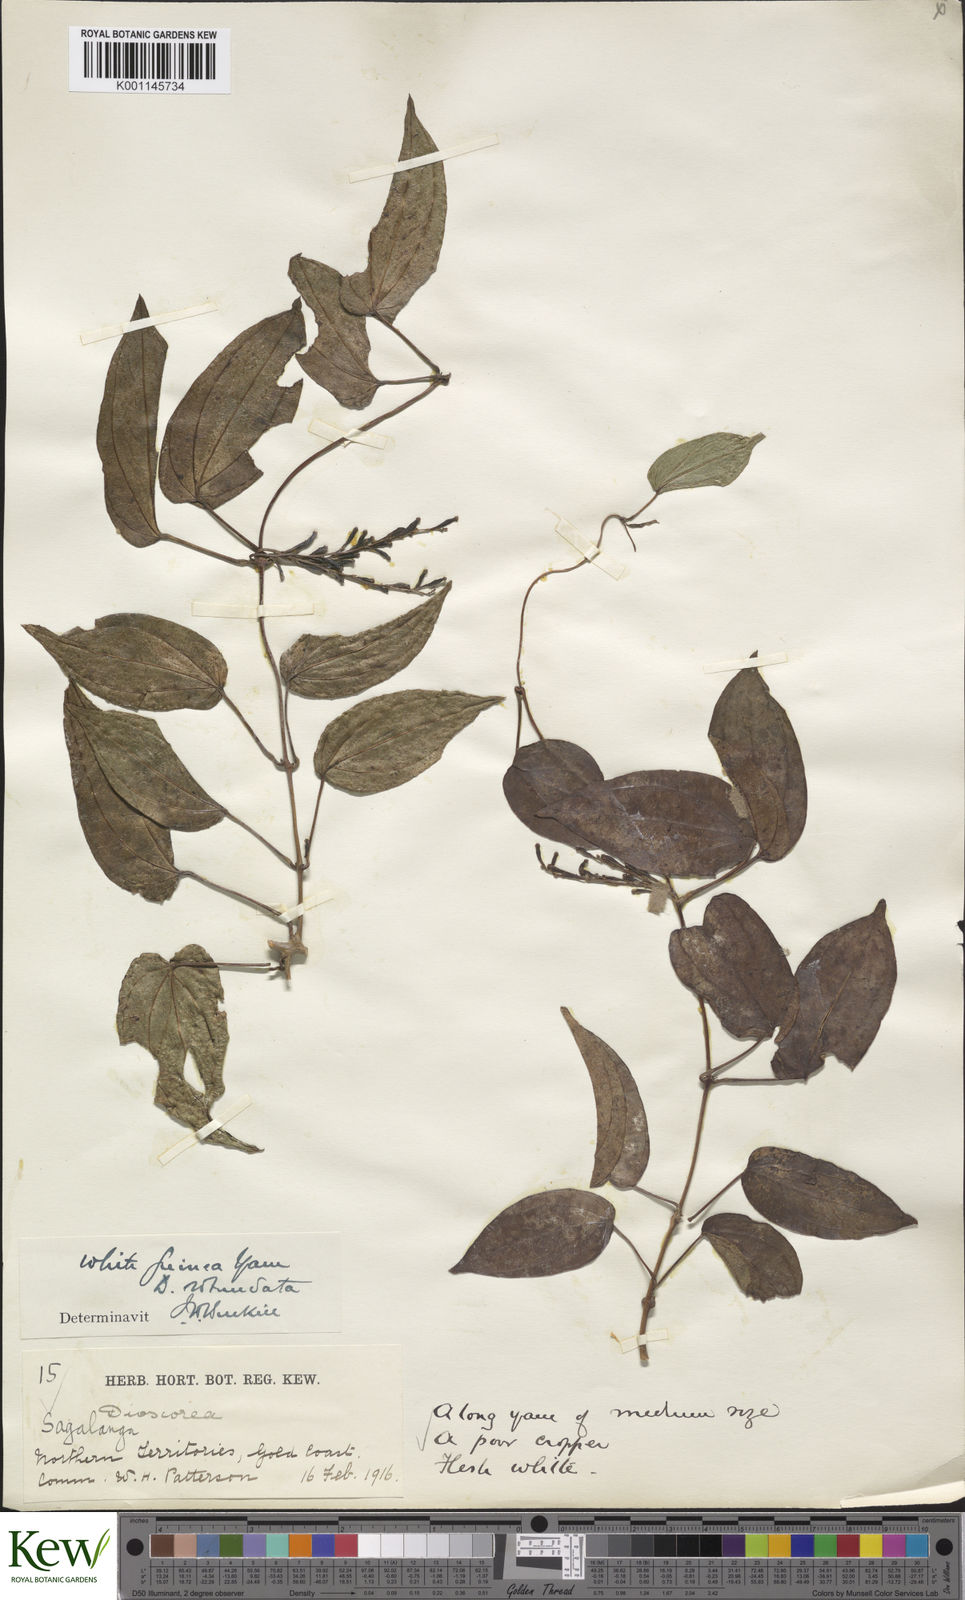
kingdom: Plantae
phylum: Tracheophyta
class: Liliopsida
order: Dioscoreales
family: Dioscoreaceae
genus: Dioscorea
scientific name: Dioscorea cayenensis
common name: Attoto yam
